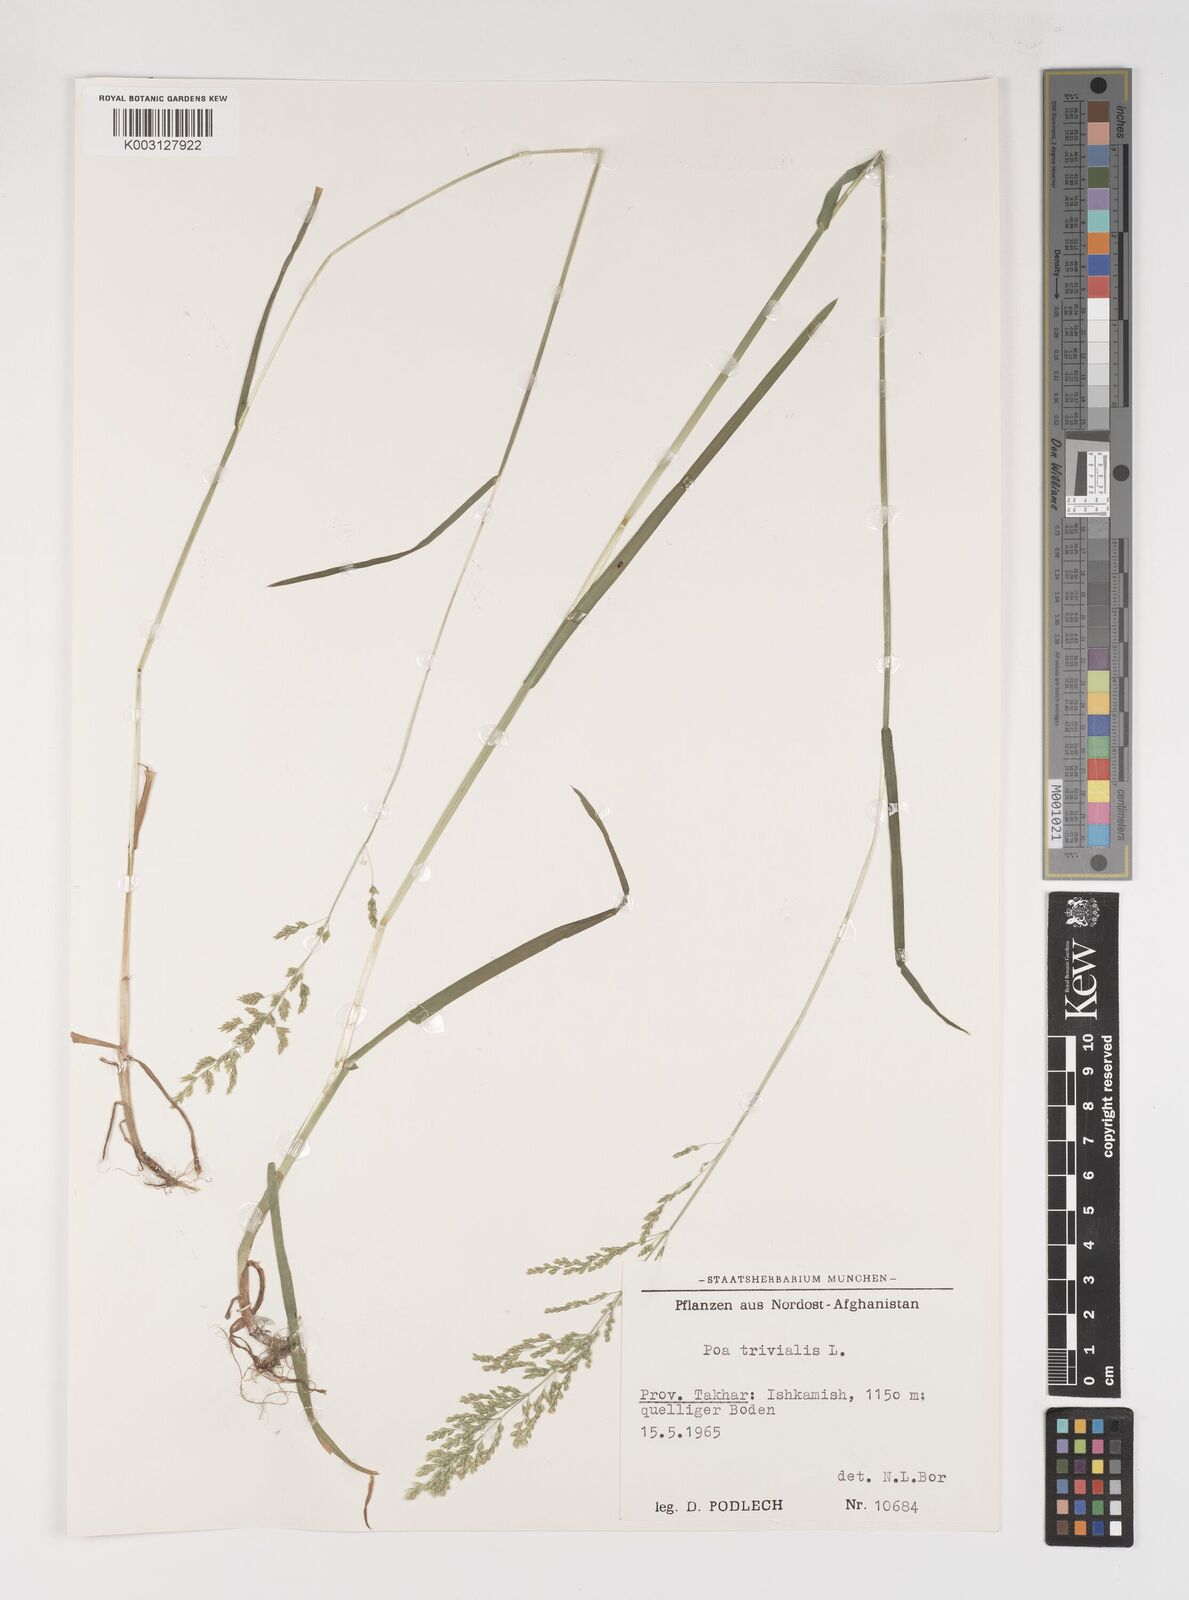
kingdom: Plantae
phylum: Tracheophyta
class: Liliopsida
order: Poales
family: Poaceae
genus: Poa
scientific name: Poa trivialis
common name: Rough bluegrass
